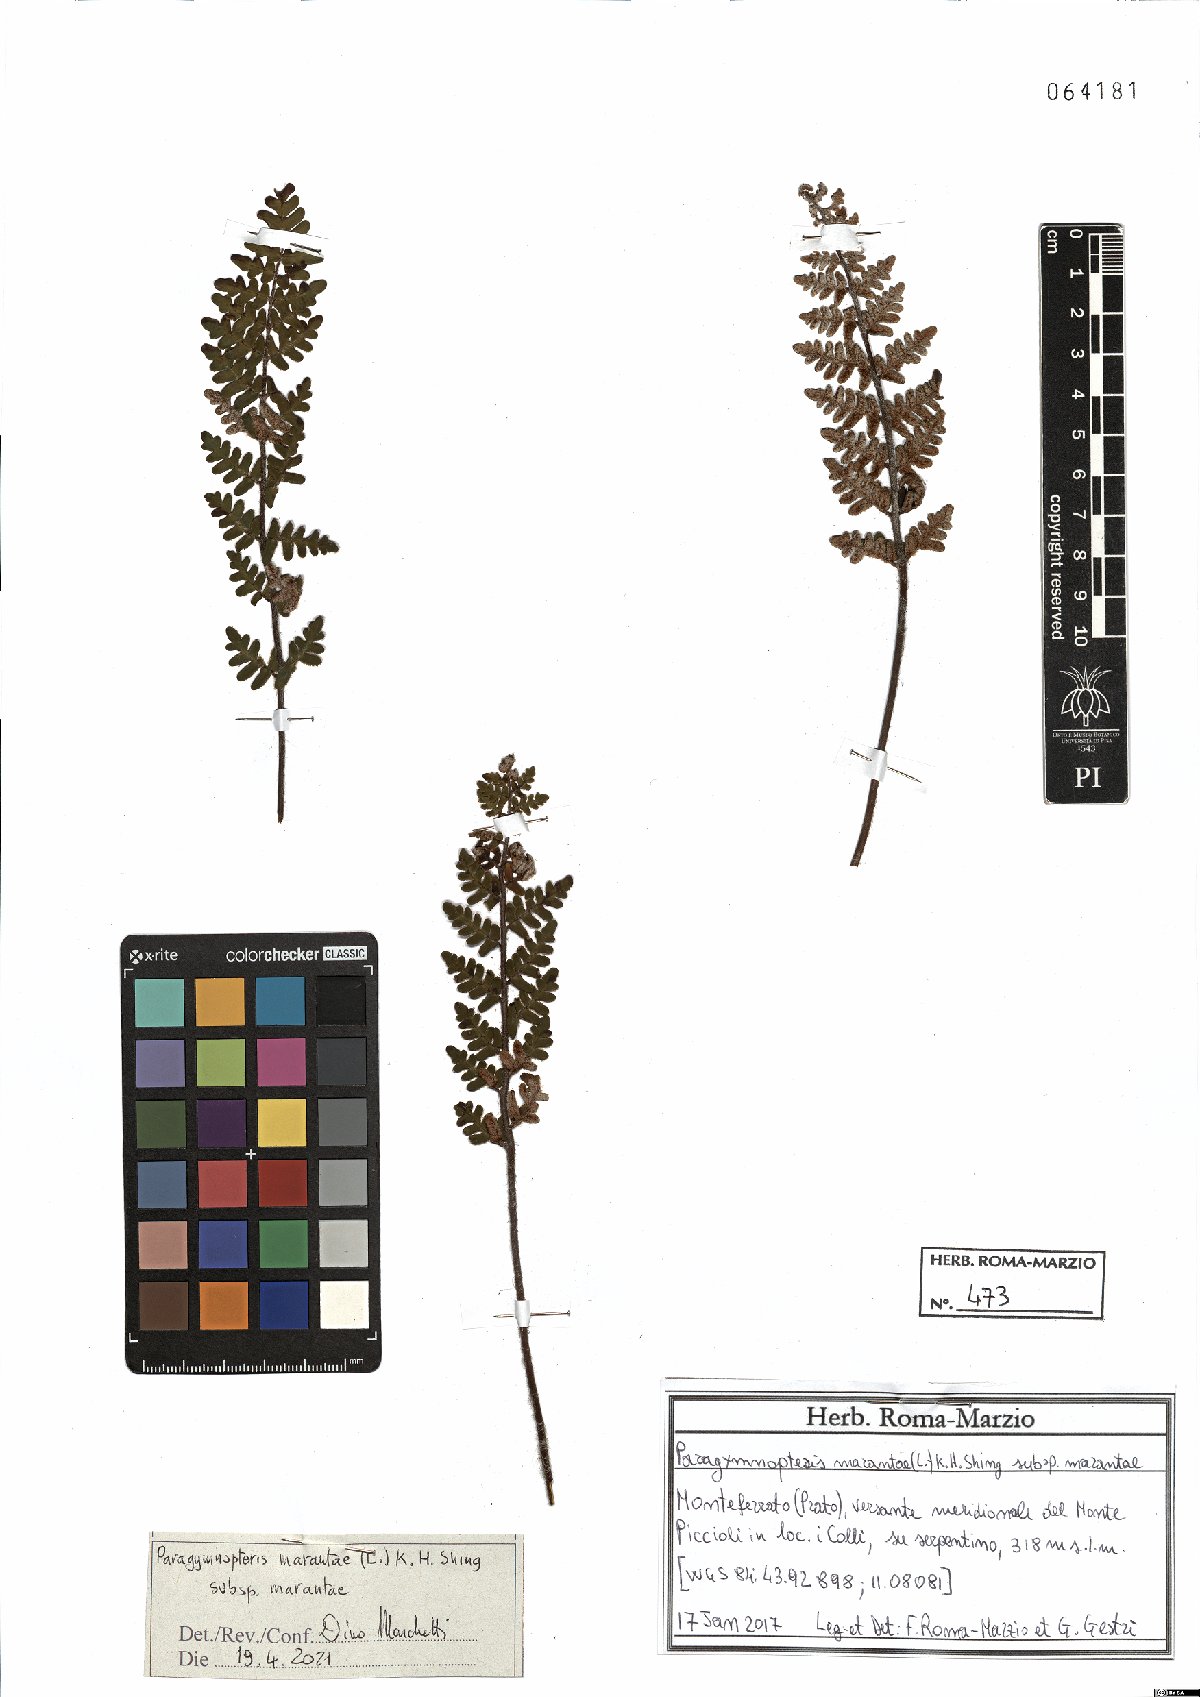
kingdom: Plantae
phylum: Tracheophyta
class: Polypodiopsida
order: Polypodiales
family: Pteridaceae
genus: Paragymnopteris
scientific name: Paragymnopteris marantae
